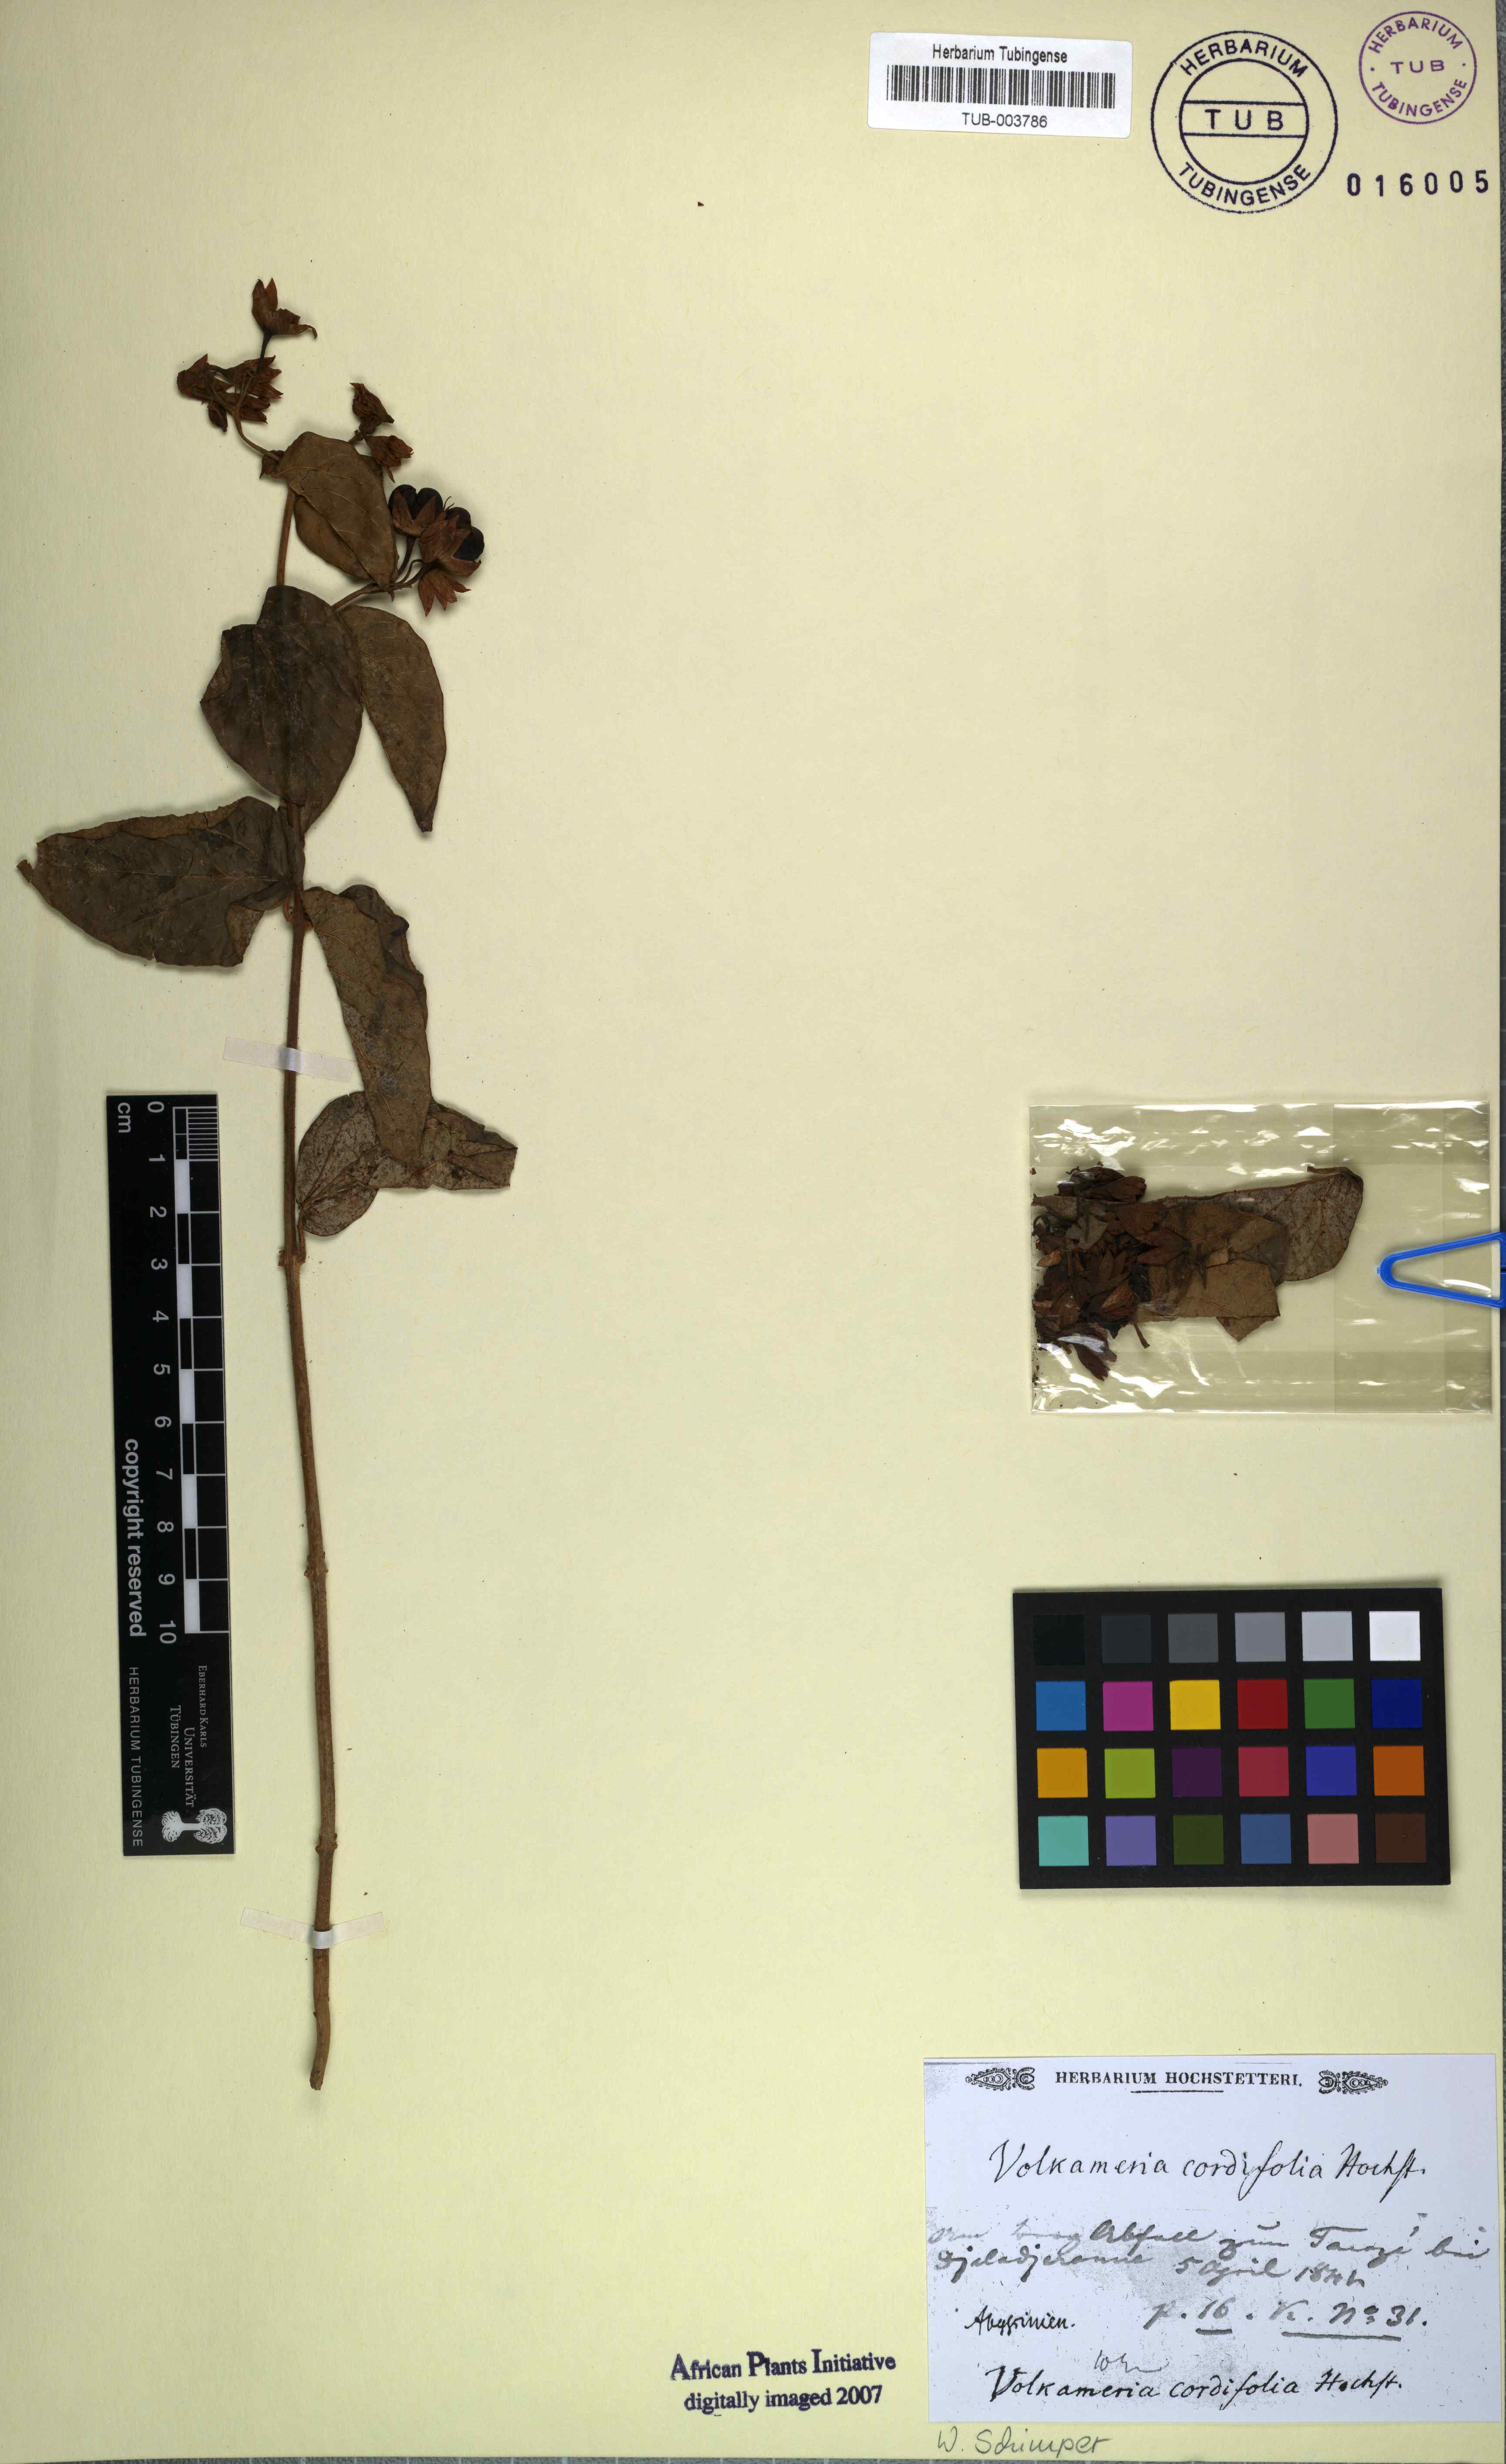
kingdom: Plantae
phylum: Tracheophyta
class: Magnoliopsida
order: Lamiales
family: Lamiaceae
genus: Clerodendrum
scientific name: Clerodendrum umbellatum
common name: Umbel clerodendrum
